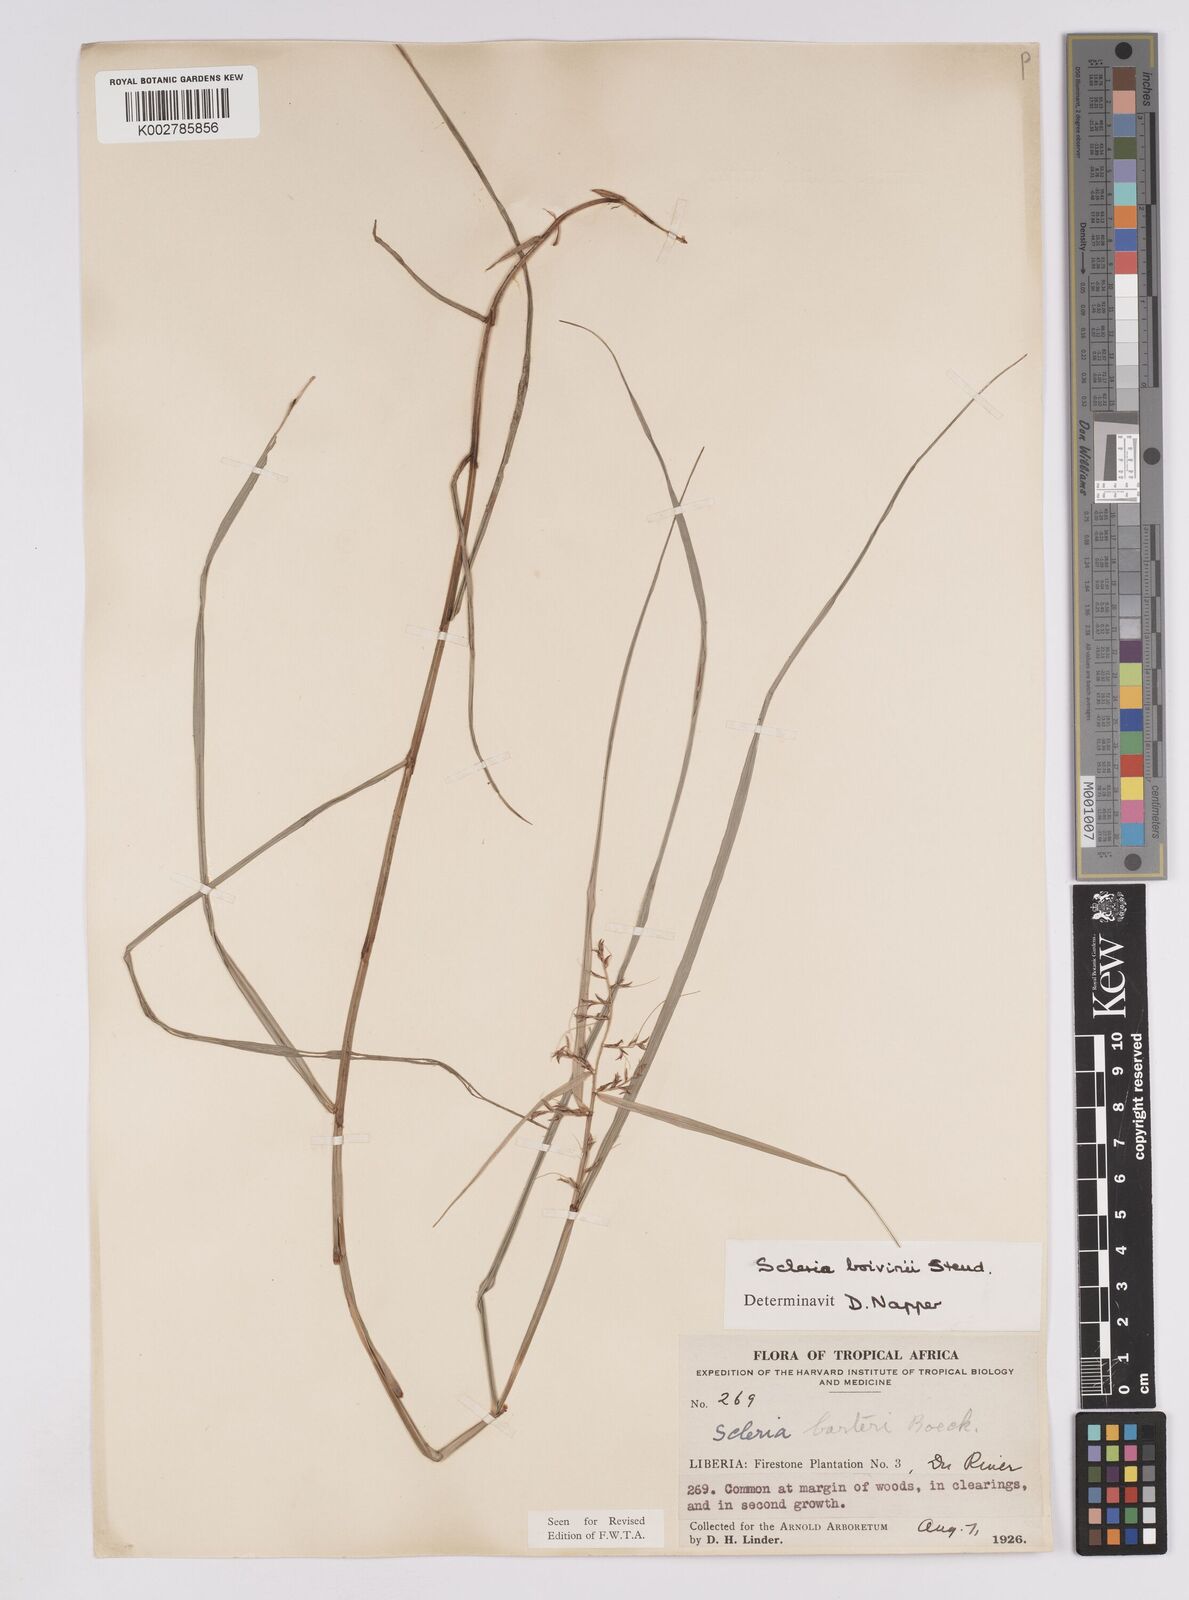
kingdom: Plantae
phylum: Tracheophyta
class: Liliopsida
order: Poales
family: Cyperaceae
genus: Scleria
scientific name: Scleria boivinii
